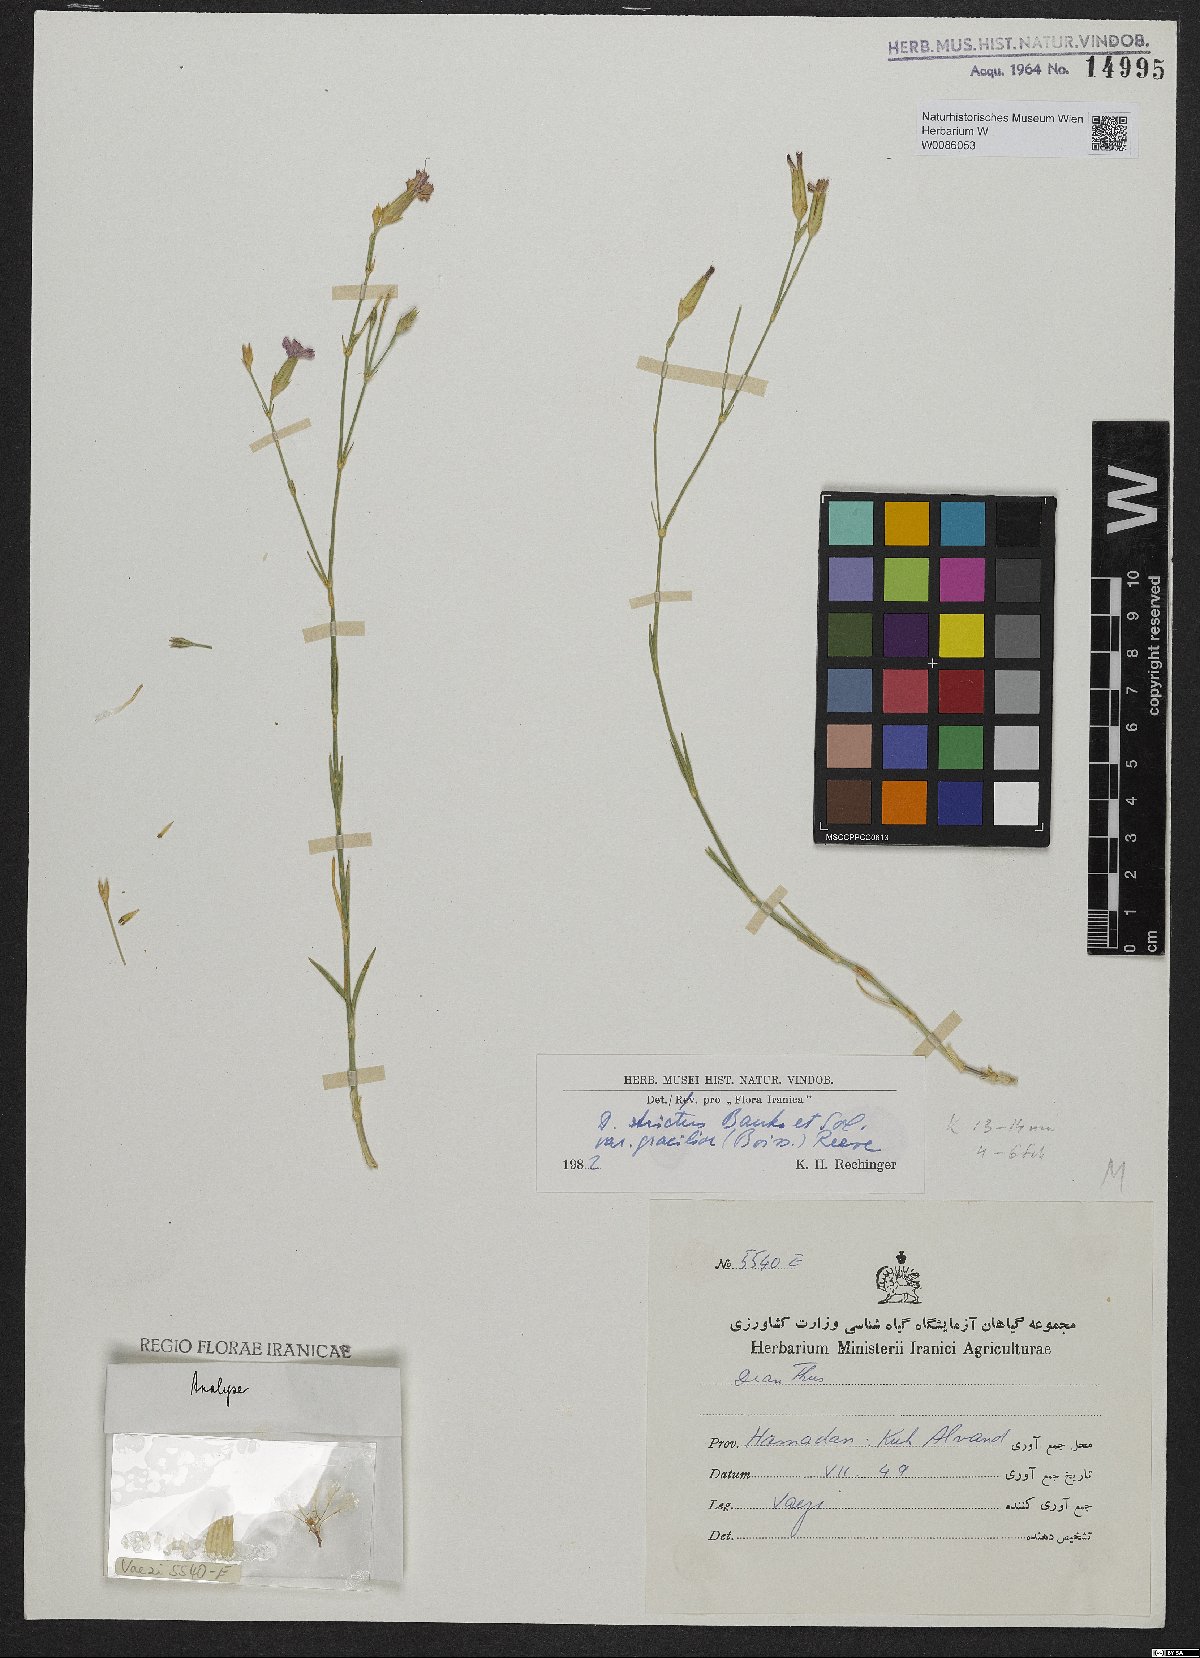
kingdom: Plantae
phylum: Tracheophyta
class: Magnoliopsida
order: Caryophyllales
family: Caryophyllaceae
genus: Dianthus
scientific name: Dianthus strictus
